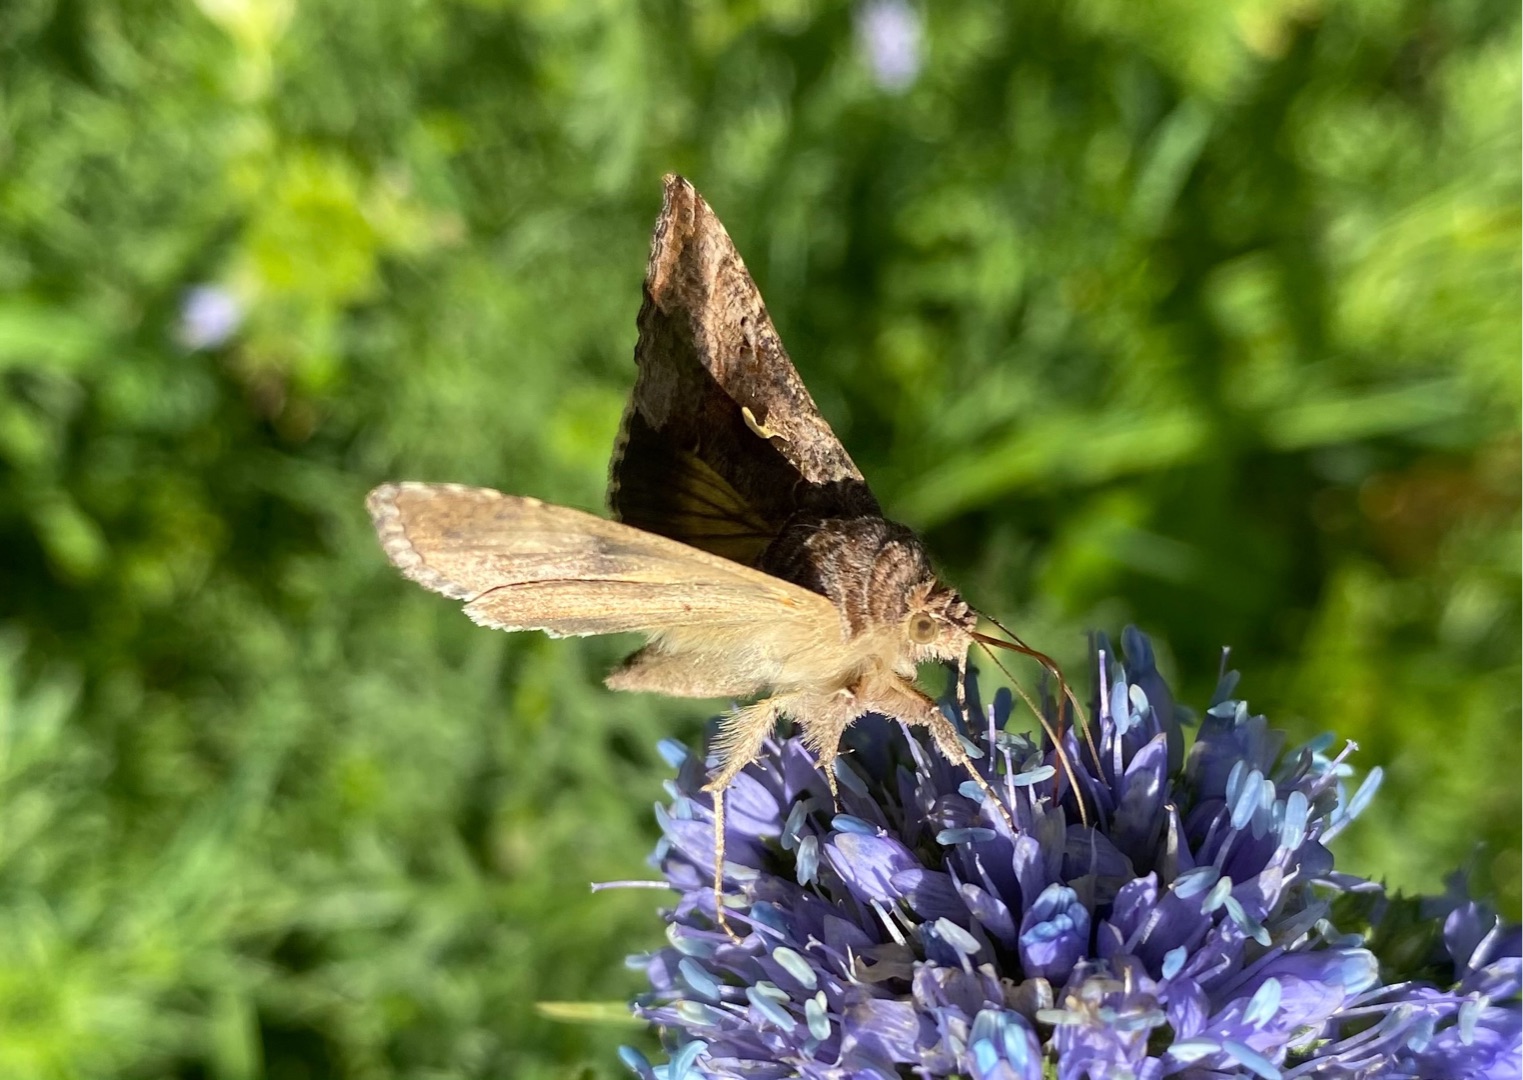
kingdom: Animalia
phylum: Arthropoda
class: Insecta
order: Lepidoptera
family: Noctuidae
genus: Autographa
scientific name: Autographa gamma
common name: Gammaugle
